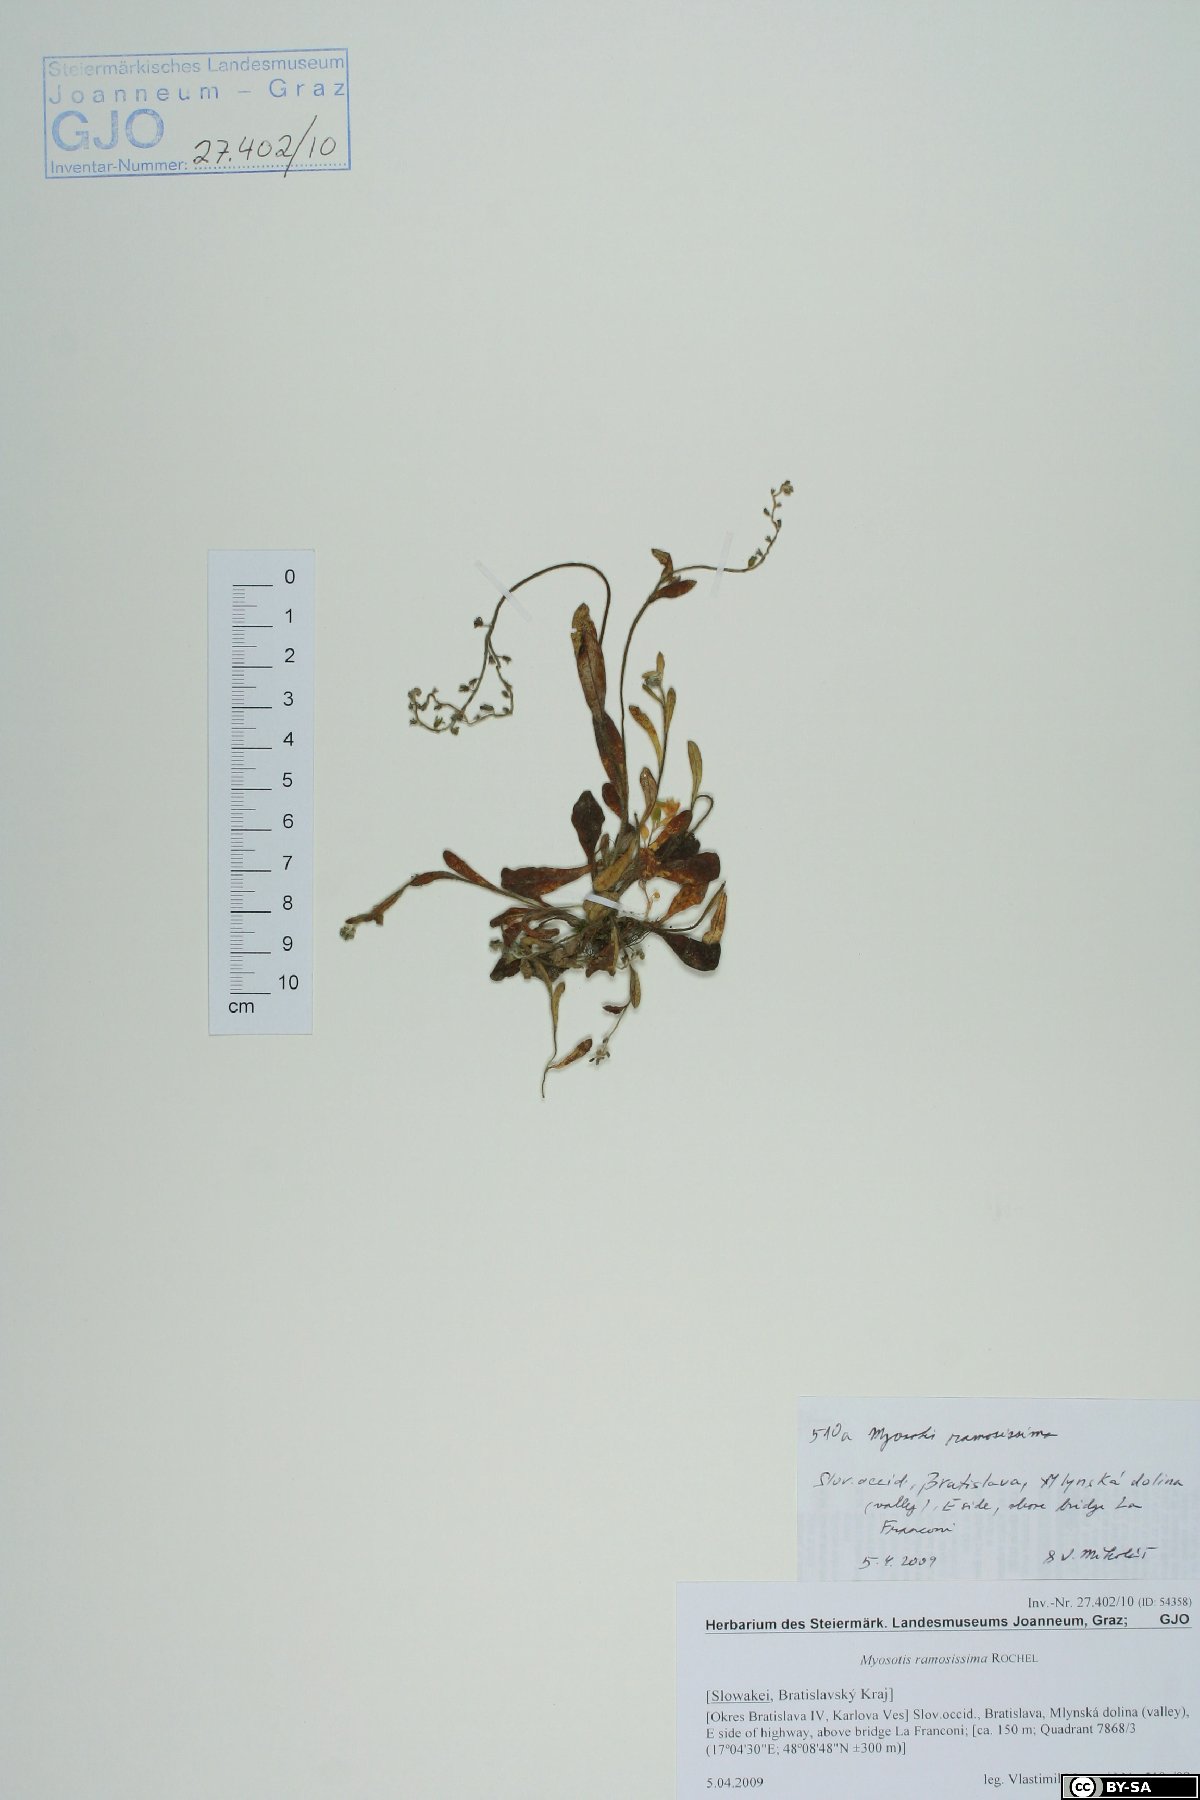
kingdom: Plantae
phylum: Tracheophyta
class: Magnoliopsida
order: Boraginales
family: Boraginaceae
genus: Myosotis
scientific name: Myosotis ramosissima
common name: Early forget-me-not
